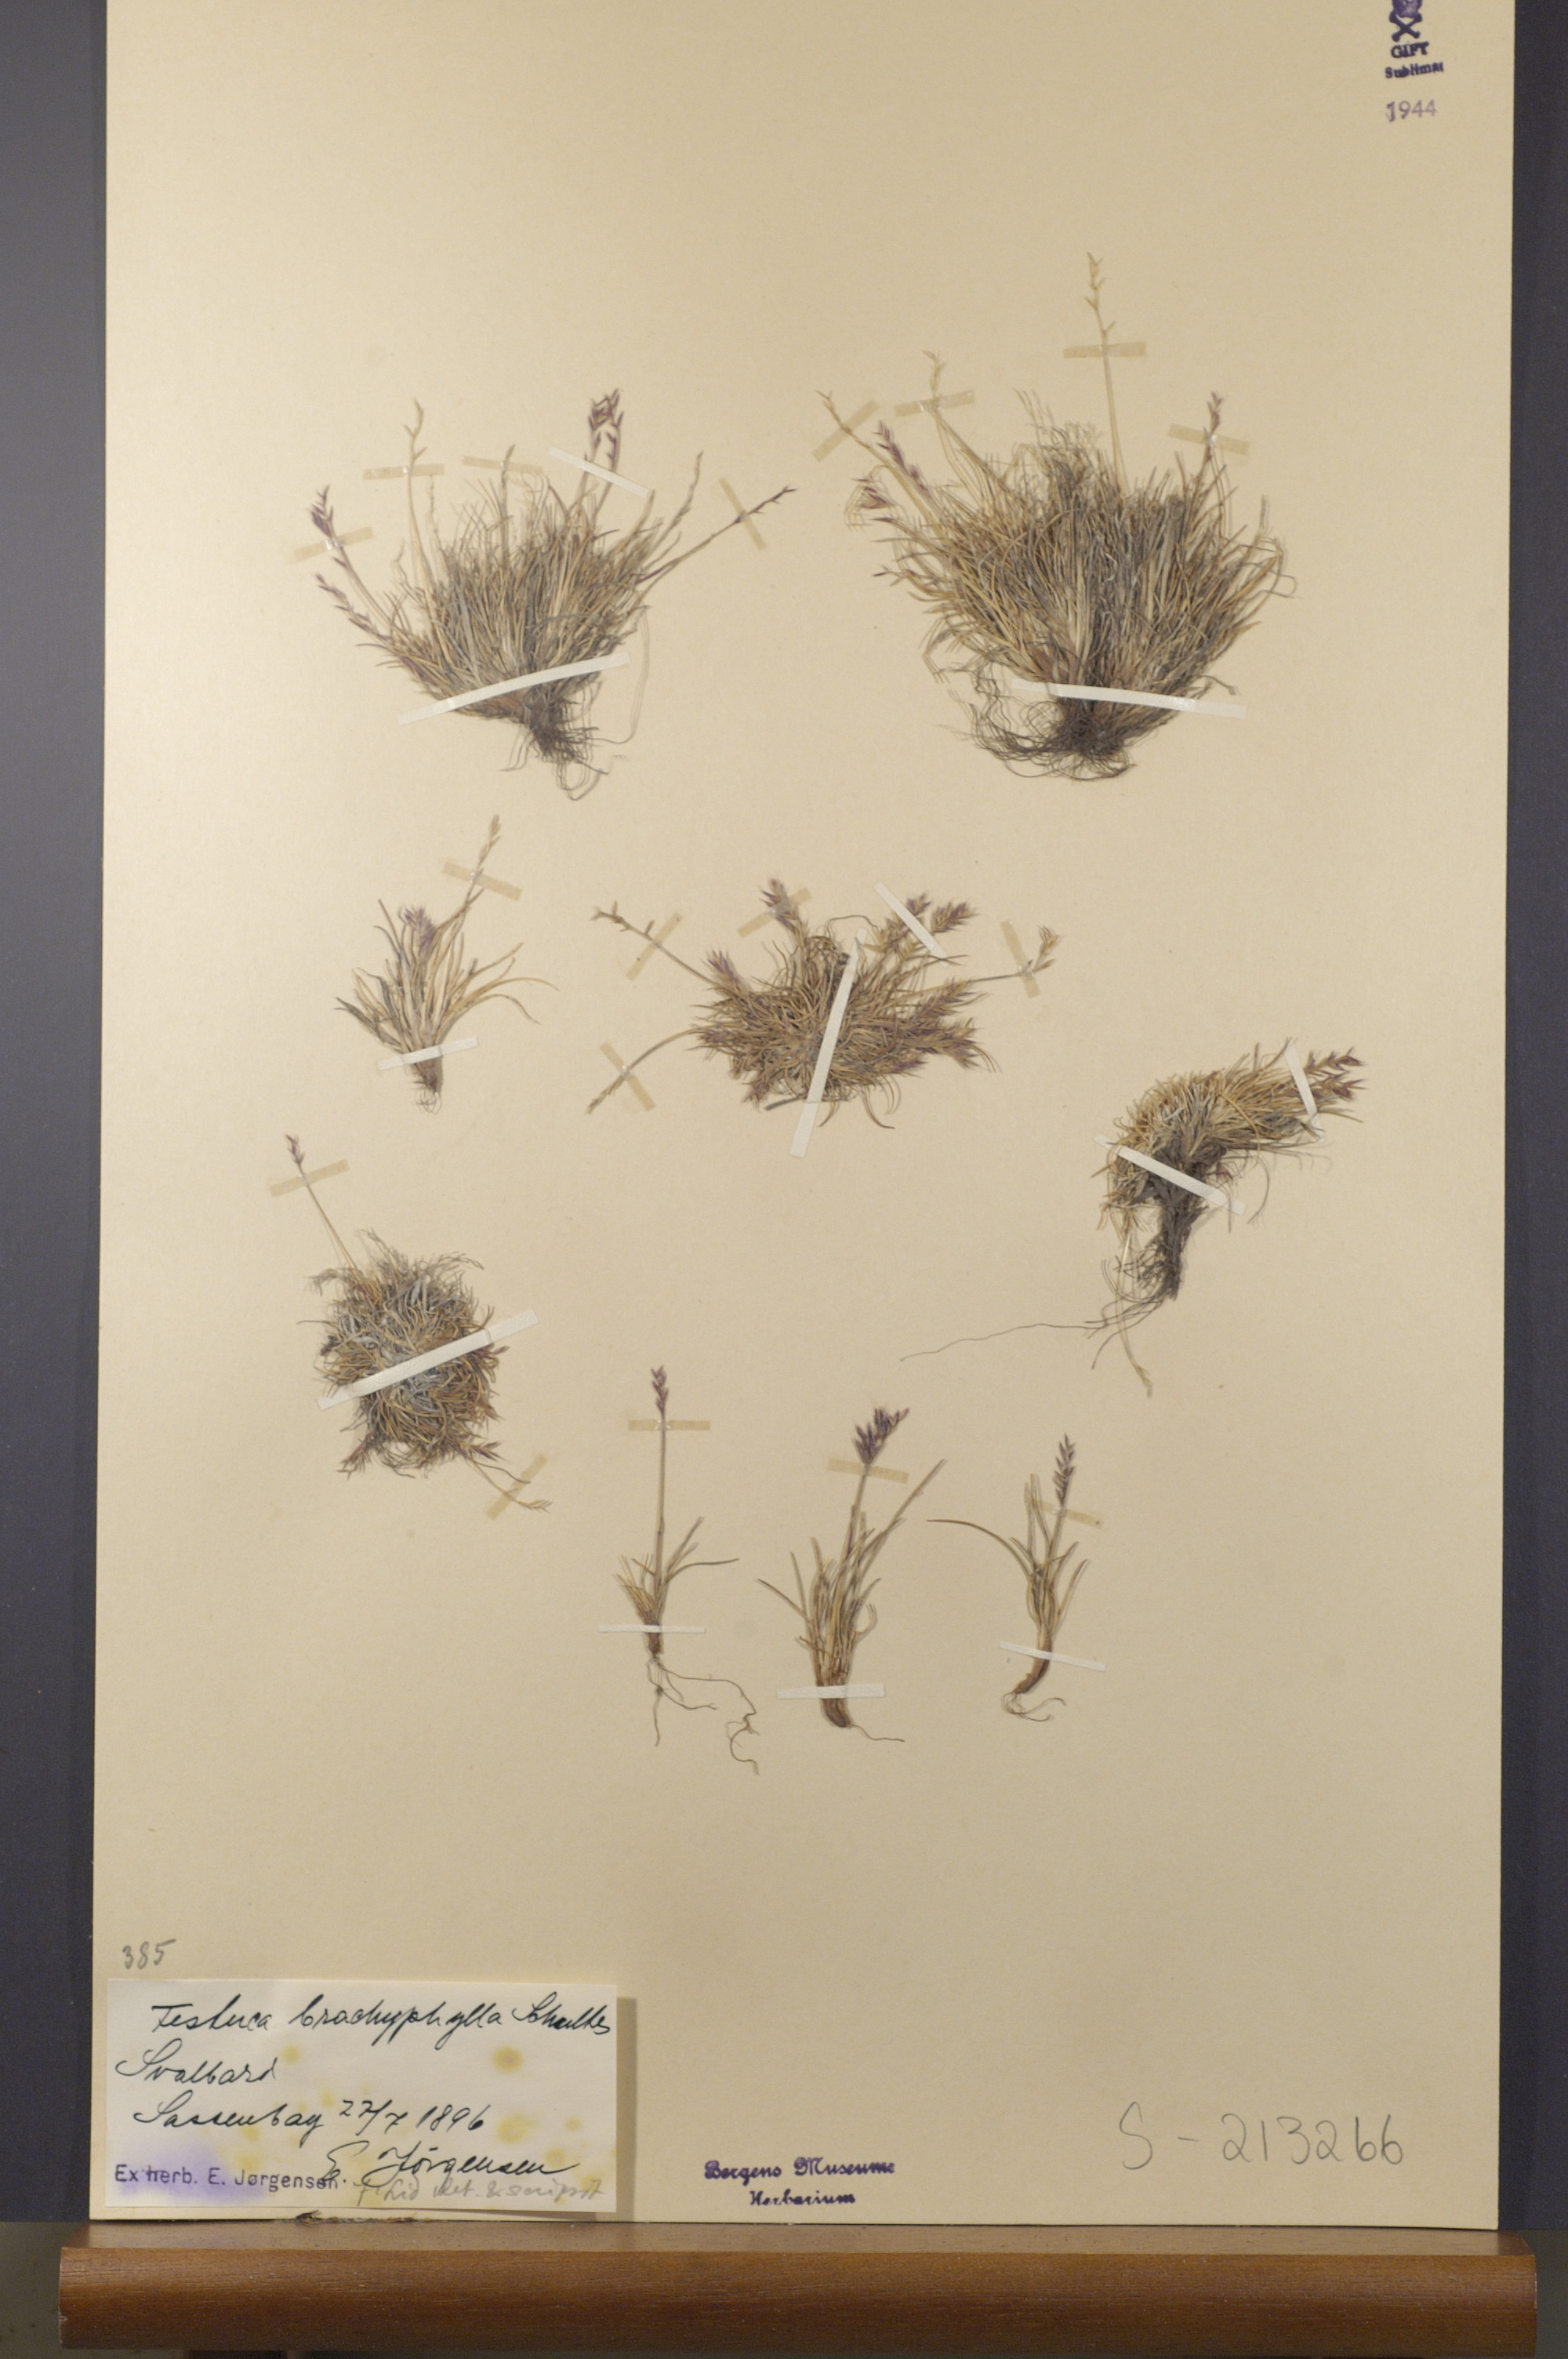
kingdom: Plantae
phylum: Tracheophyta
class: Liliopsida
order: Poales
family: Poaceae
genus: Festuca
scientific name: Festuca brachyphylla
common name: Alpine fescue
